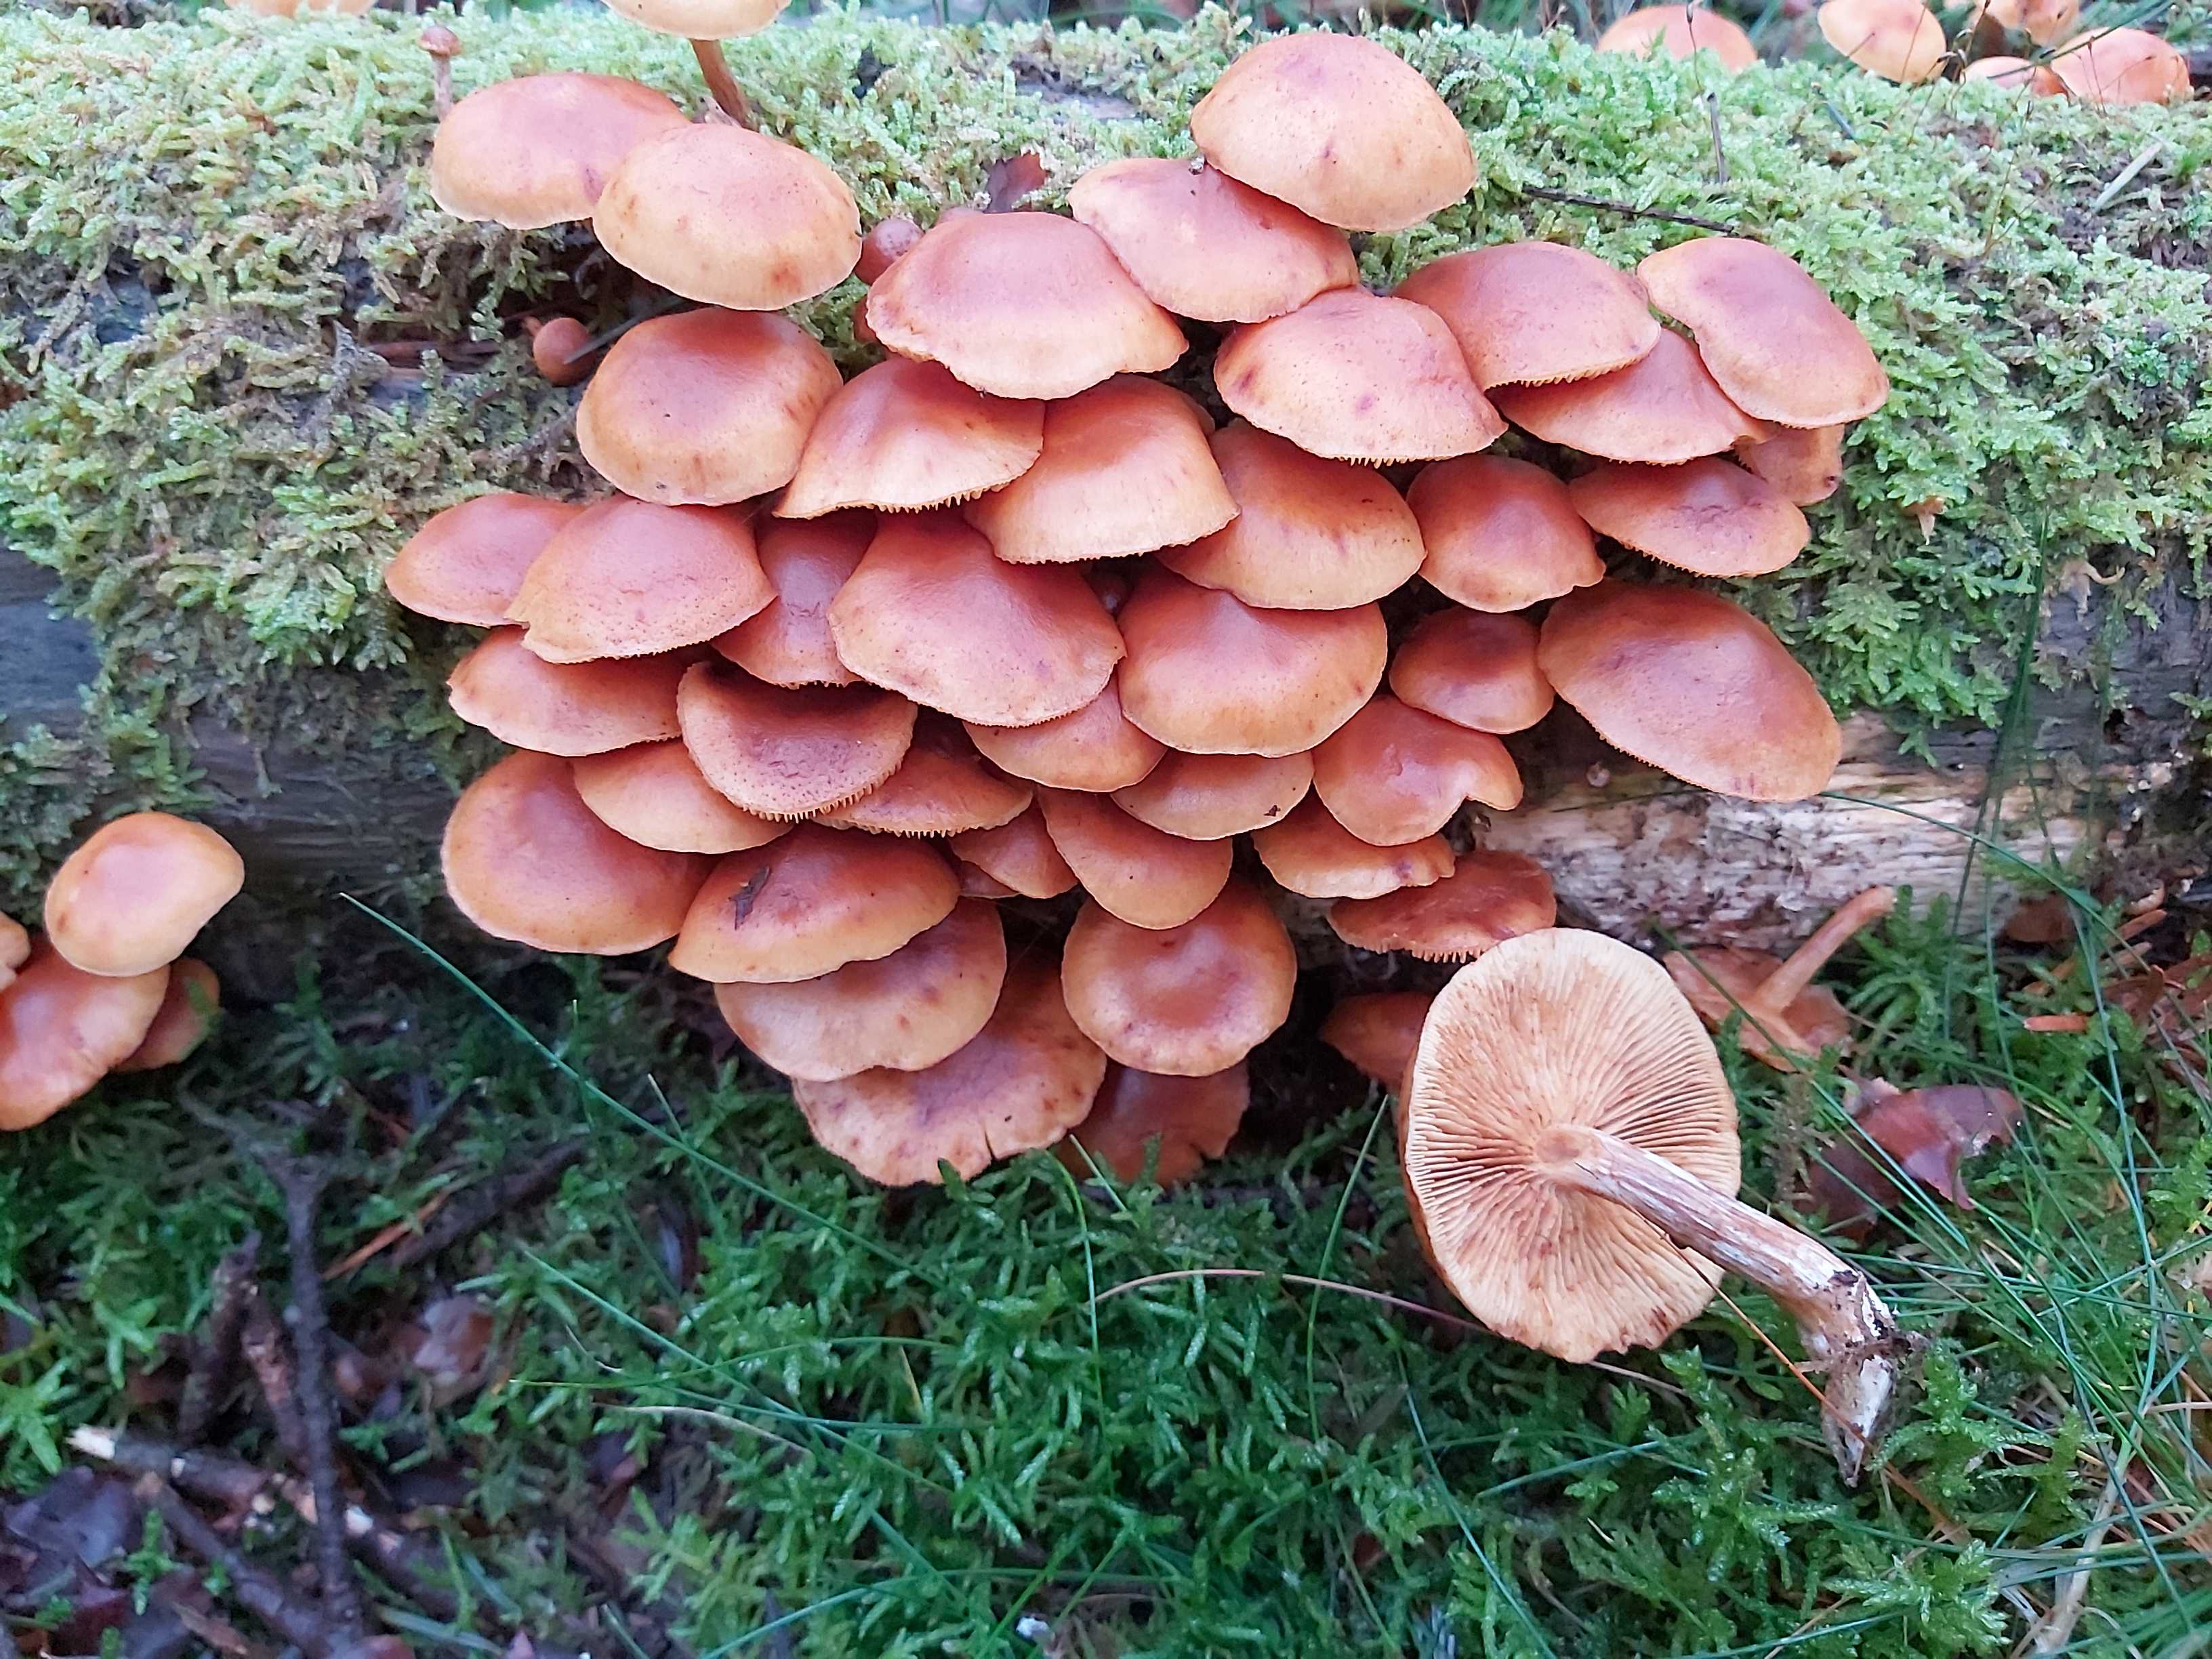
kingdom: Fungi
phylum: Basidiomycota
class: Agaricomycetes
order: Agaricales
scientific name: Agaricales
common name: champignonordenen
